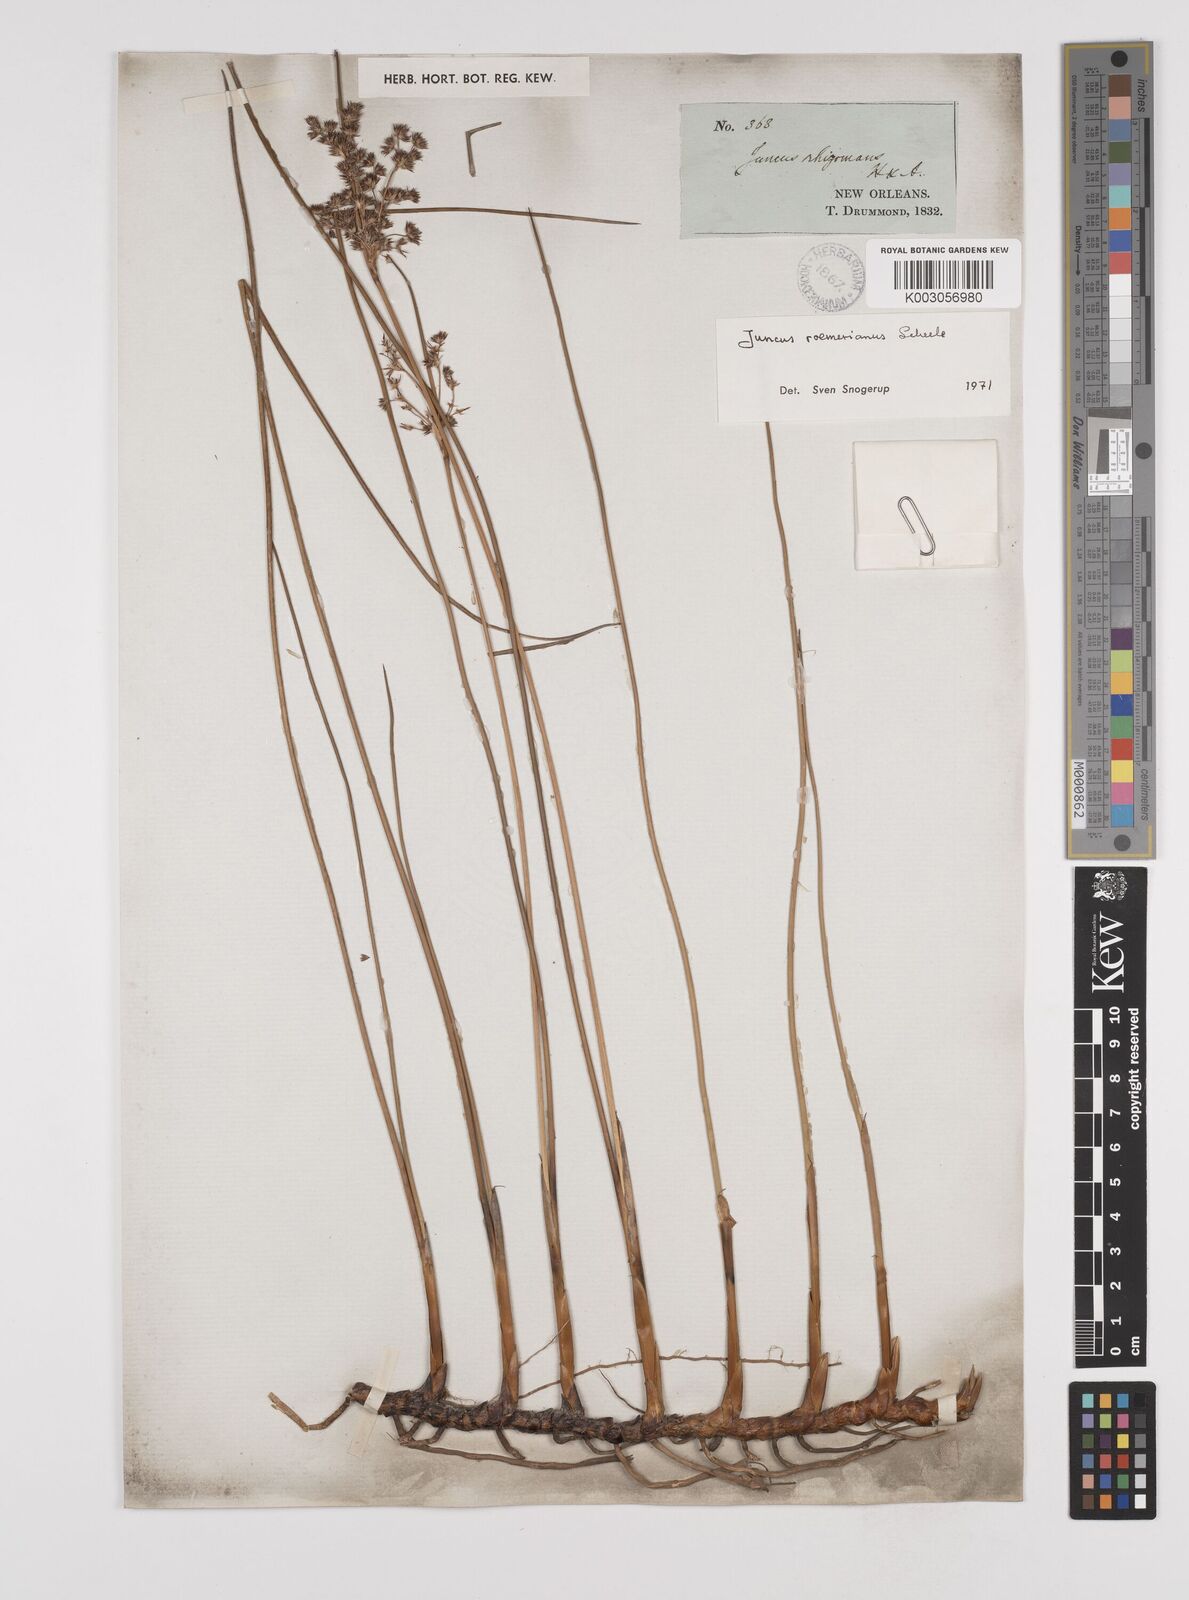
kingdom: Plantae
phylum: Tracheophyta
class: Liliopsida
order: Poales
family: Juncaceae
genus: Juncus
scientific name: Juncus roemerianus
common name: Roemer's rush
